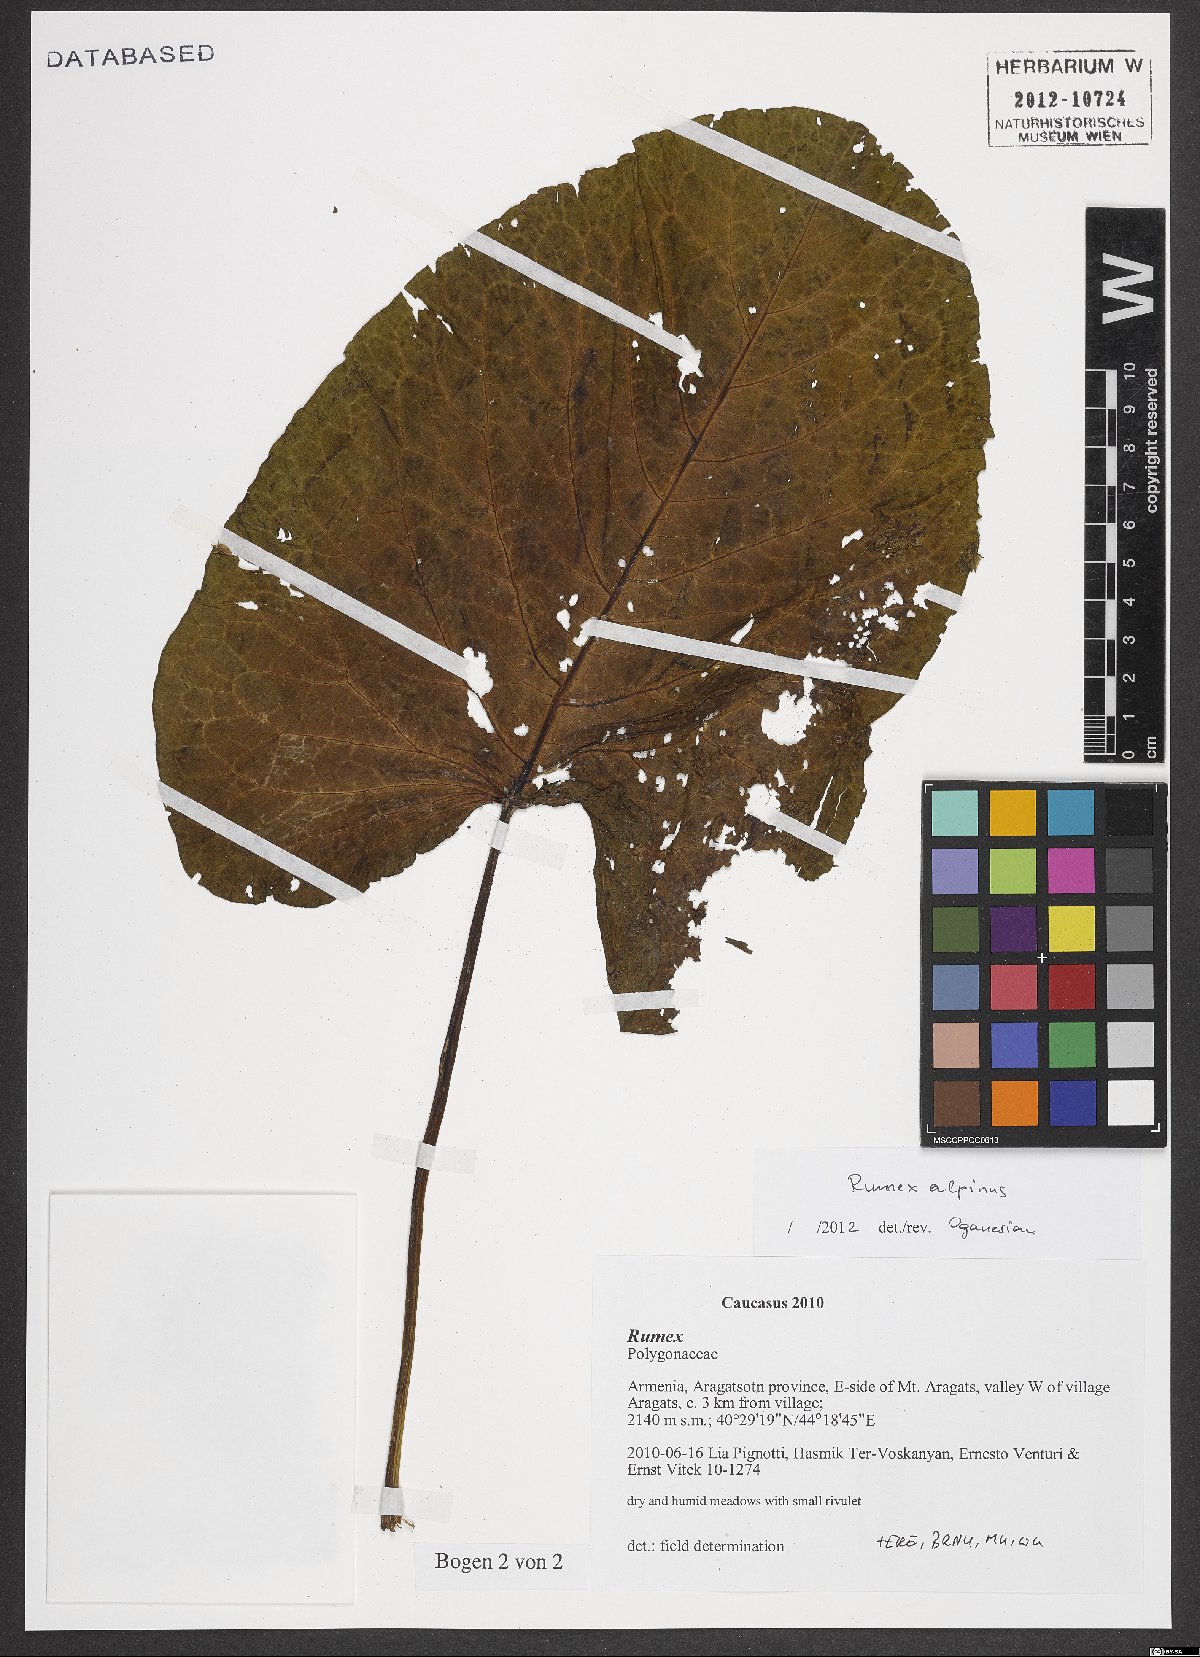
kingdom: Plantae
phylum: Tracheophyta
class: Magnoliopsida
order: Caryophyllales
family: Polygonaceae
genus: Rumex
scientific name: Rumex alpinus
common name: Alpine dock
